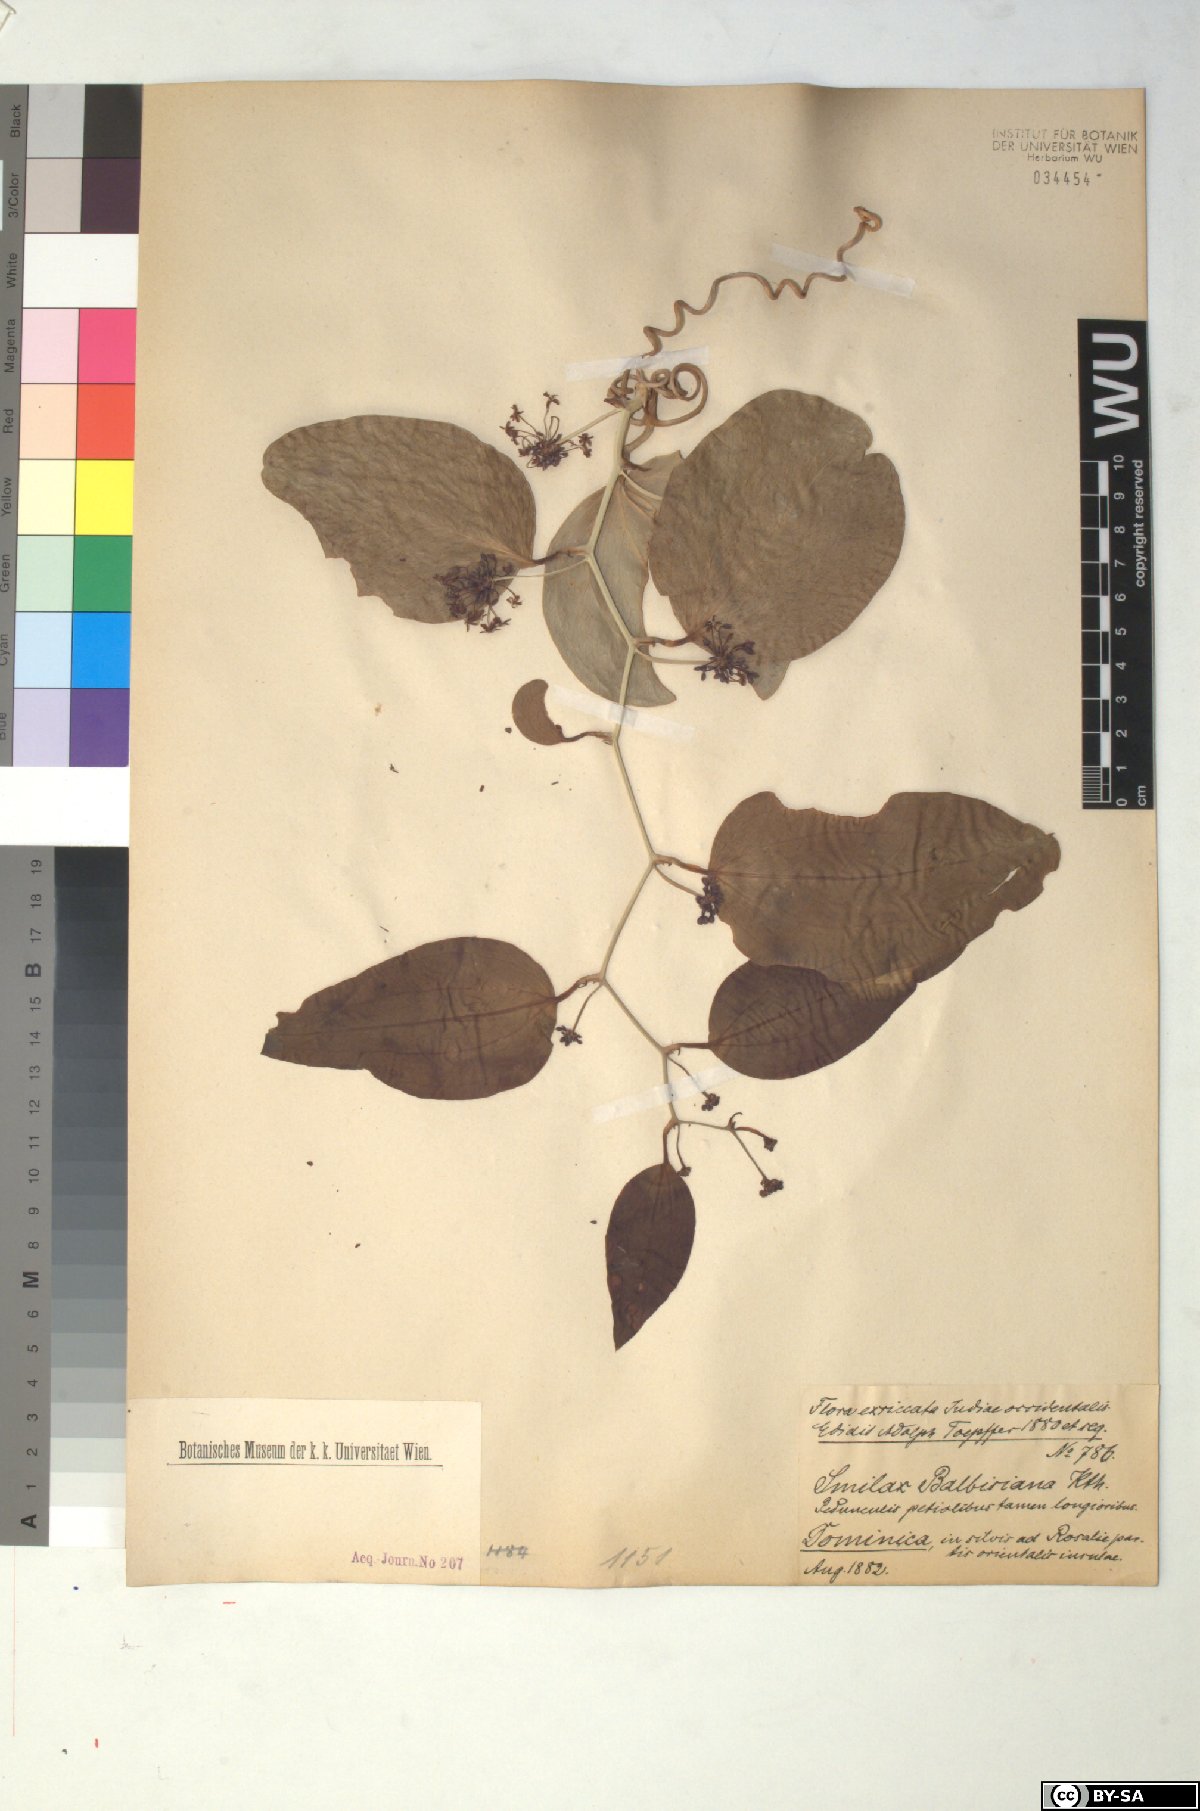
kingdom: Plantae
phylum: Tracheophyta
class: Liliopsida
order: Liliales
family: Smilacaceae
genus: Smilax
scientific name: Smilax domingensis
